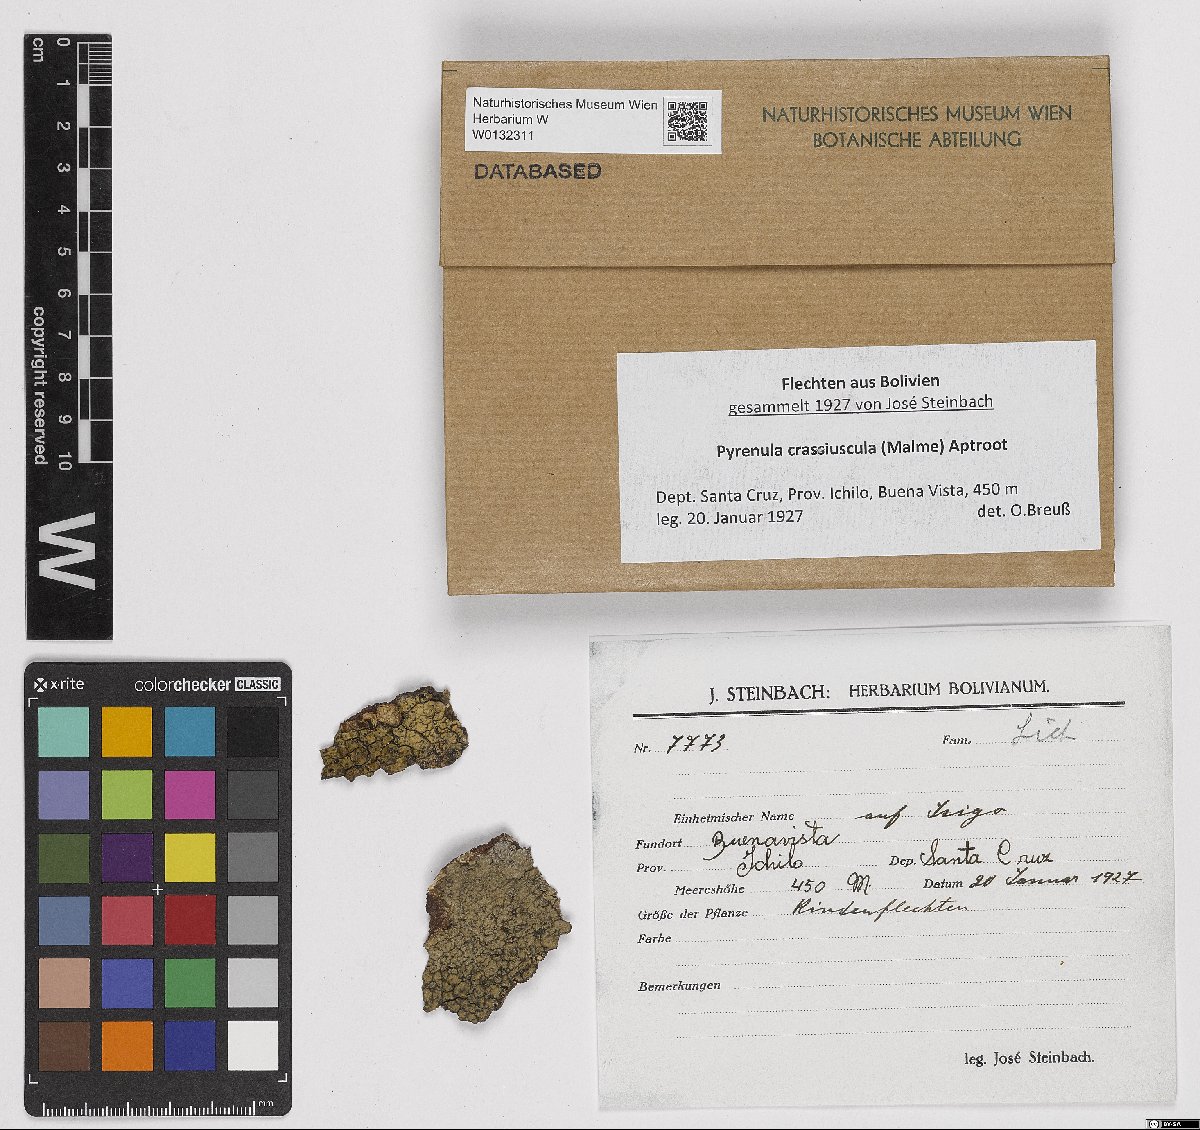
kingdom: Fungi
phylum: Ascomycota
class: Eurotiomycetes
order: Pyrenulales
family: Pyrenulaceae
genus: Pyrenula
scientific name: Pyrenula crassiuscula
